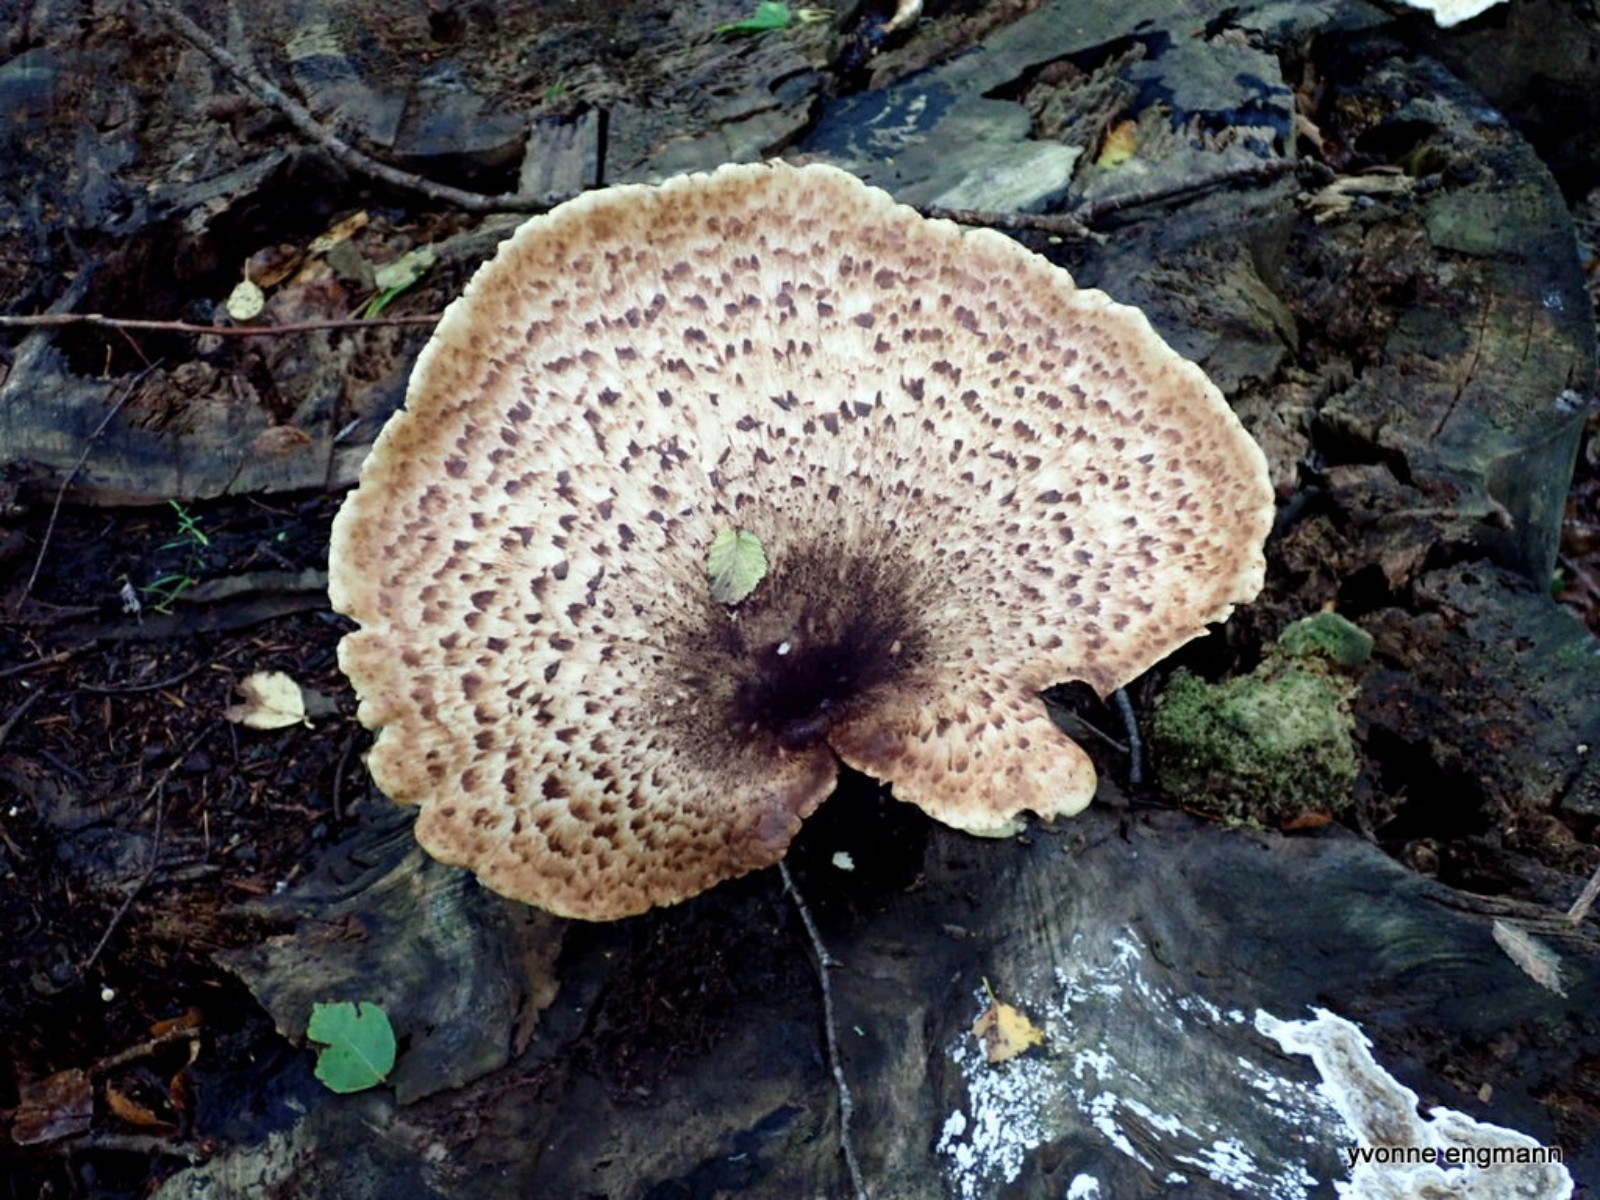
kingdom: Fungi
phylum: Basidiomycota
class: Agaricomycetes
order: Polyporales
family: Polyporaceae
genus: Cerioporus
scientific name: Cerioporus squamosus
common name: skællet stilkporesvamp
